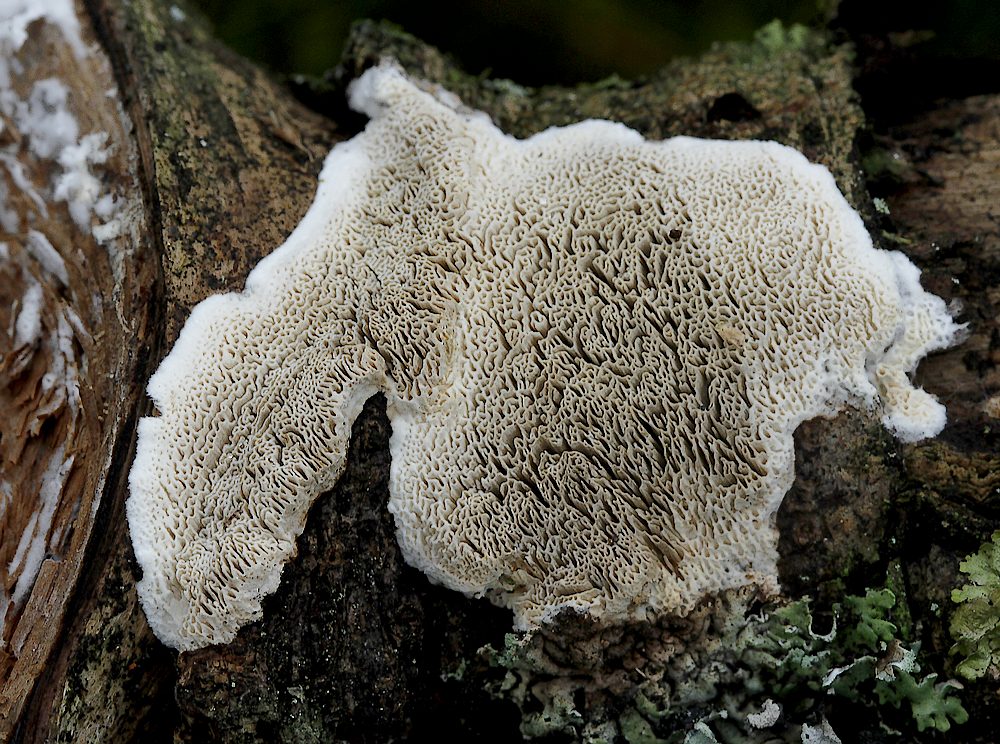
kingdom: Fungi
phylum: Basidiomycota
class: Agaricomycetes
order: Polyporales
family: Incrustoporiaceae
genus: Skeletocutis
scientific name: Skeletocutis carneogrisea
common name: rødgrå krystalporesvamp
